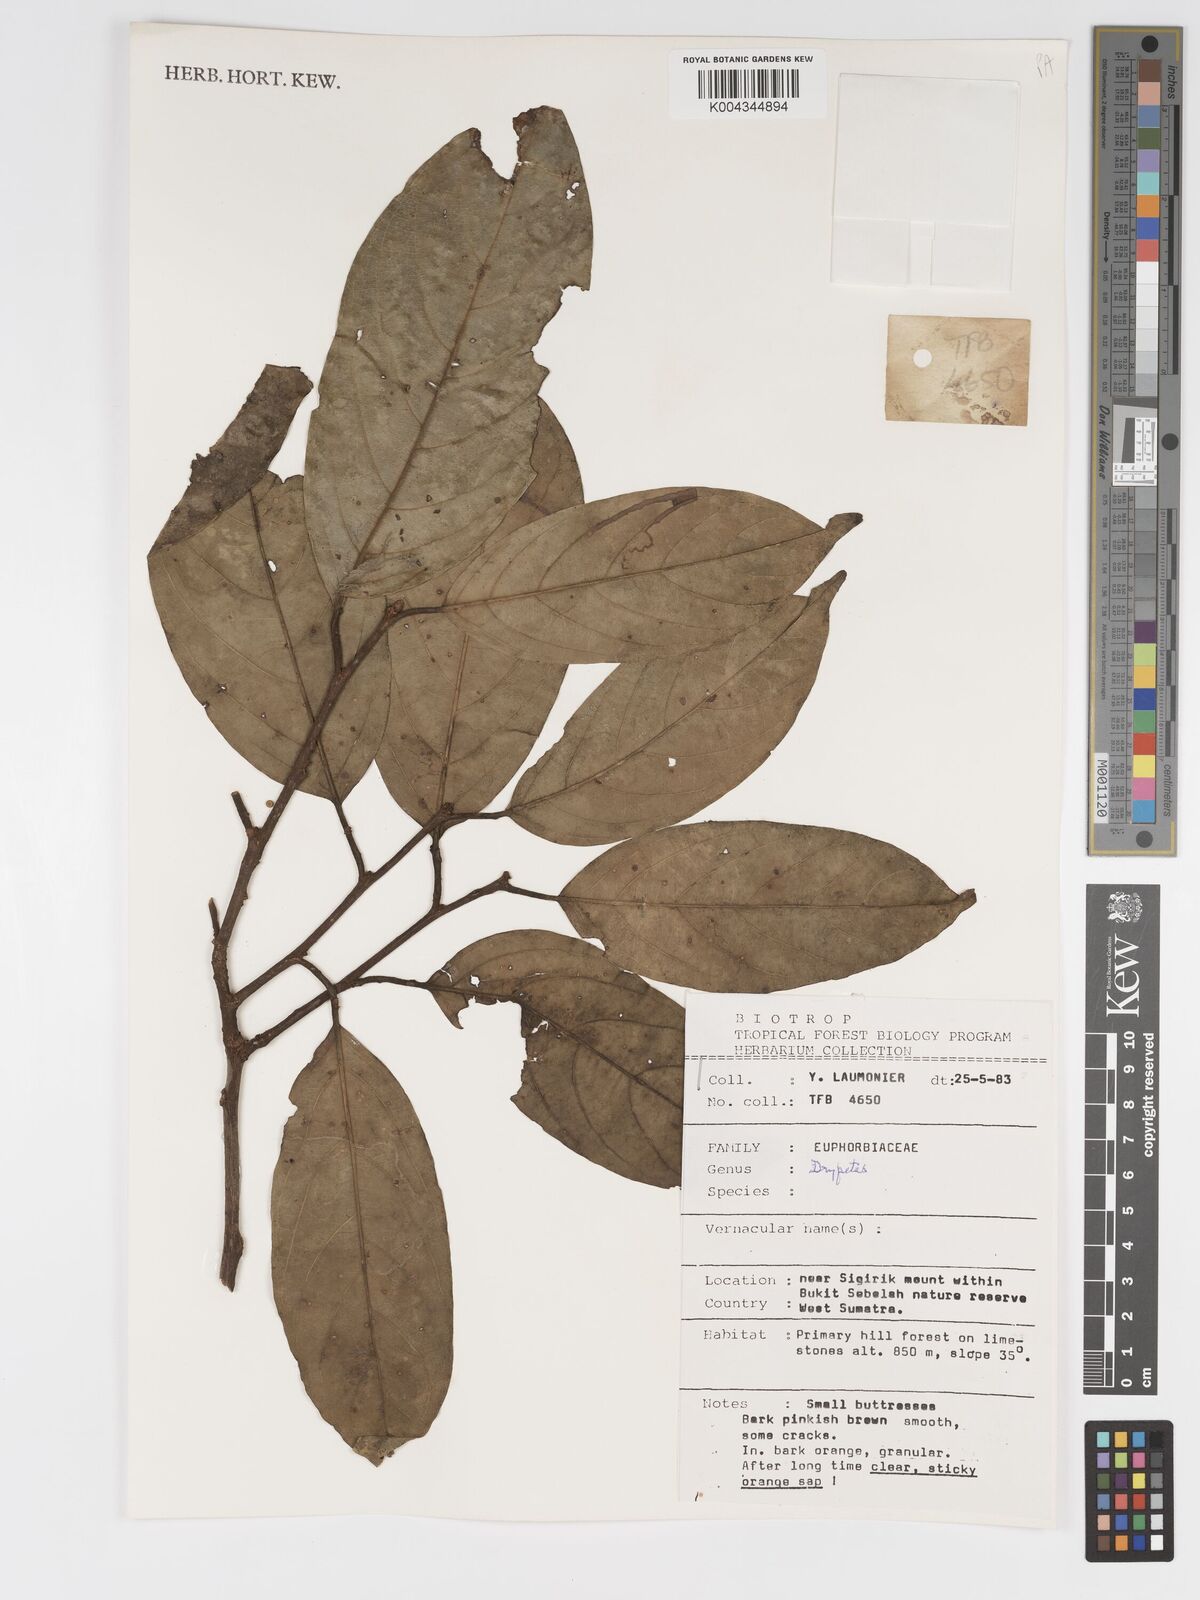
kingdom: Plantae
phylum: Tracheophyta
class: Magnoliopsida
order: Malpighiales
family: Putranjivaceae
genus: Drypetes
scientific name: Drypetes
